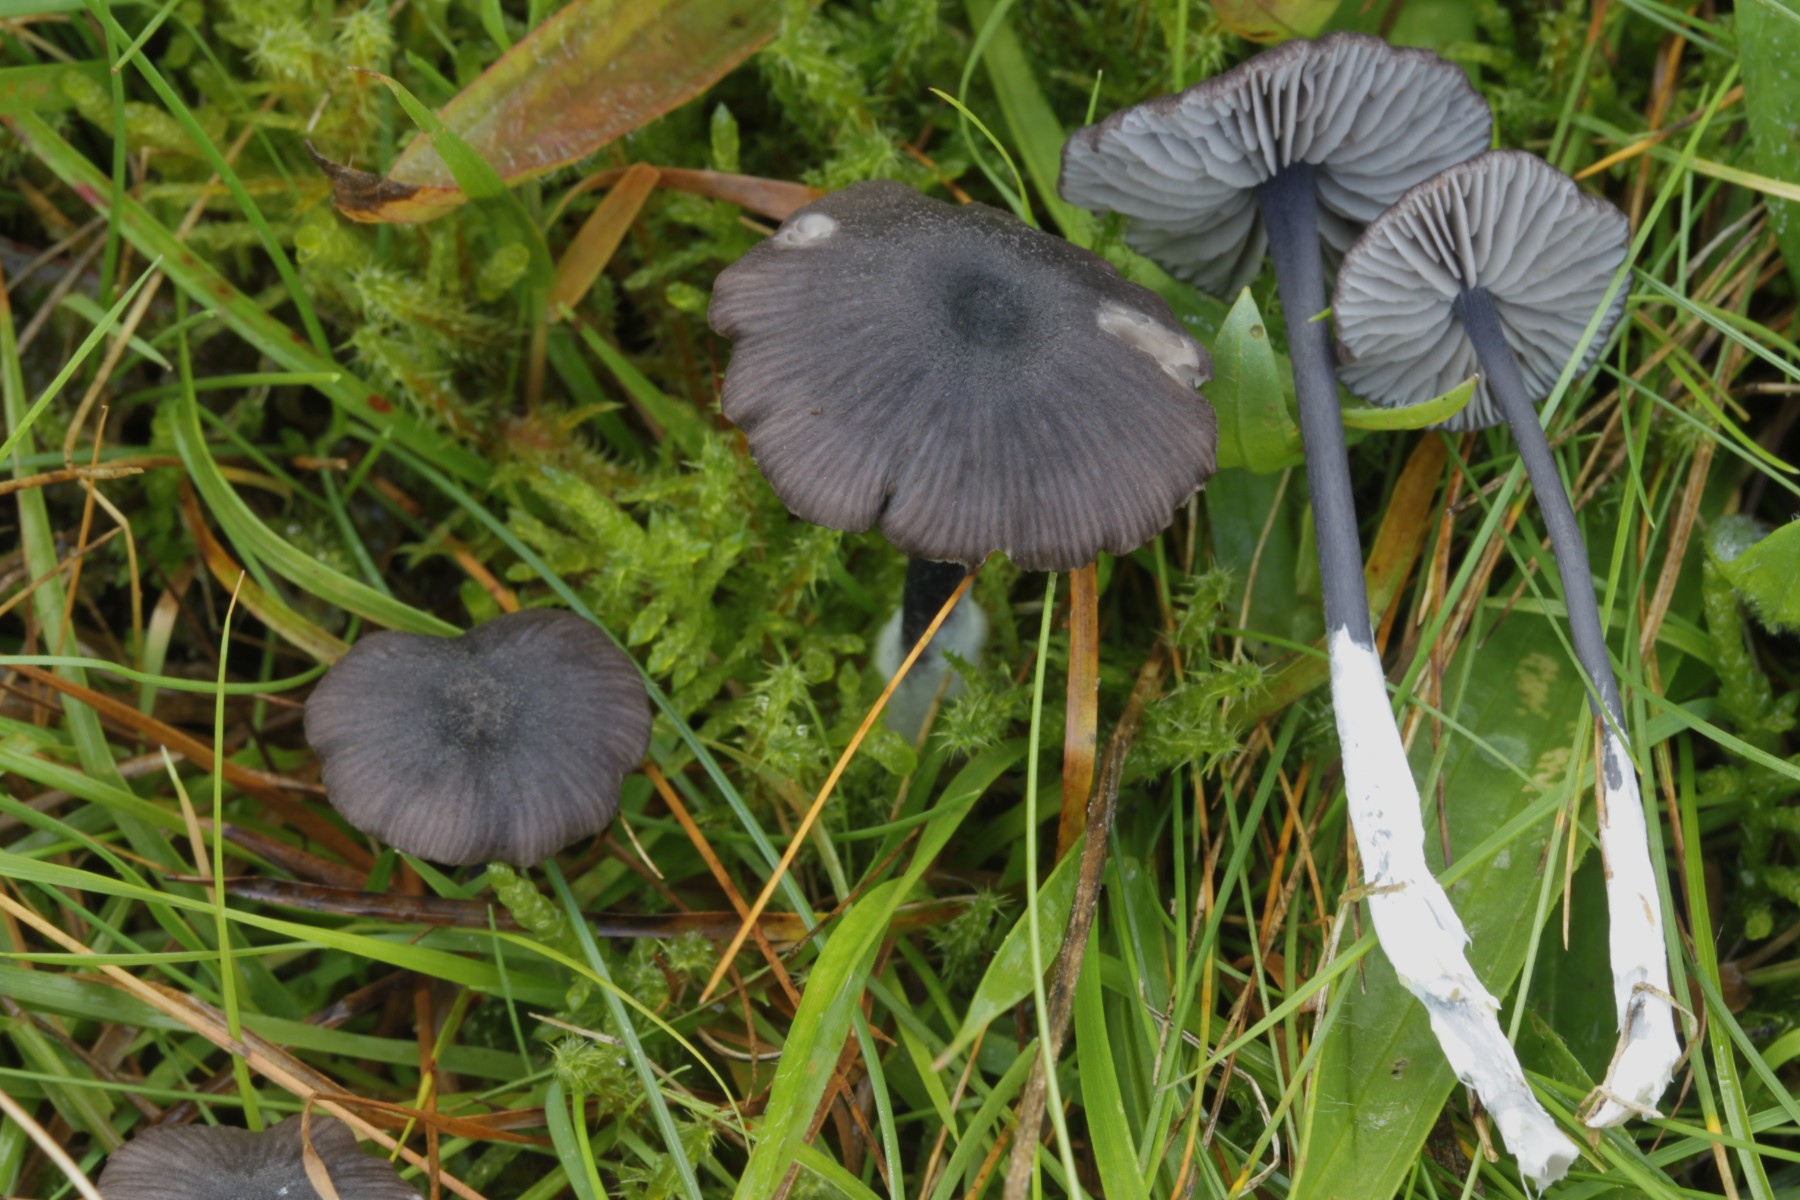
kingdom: Fungi
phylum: Basidiomycota
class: Agaricomycetes
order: Agaricales
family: Entolomataceae
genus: Entoloma
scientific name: Entoloma
